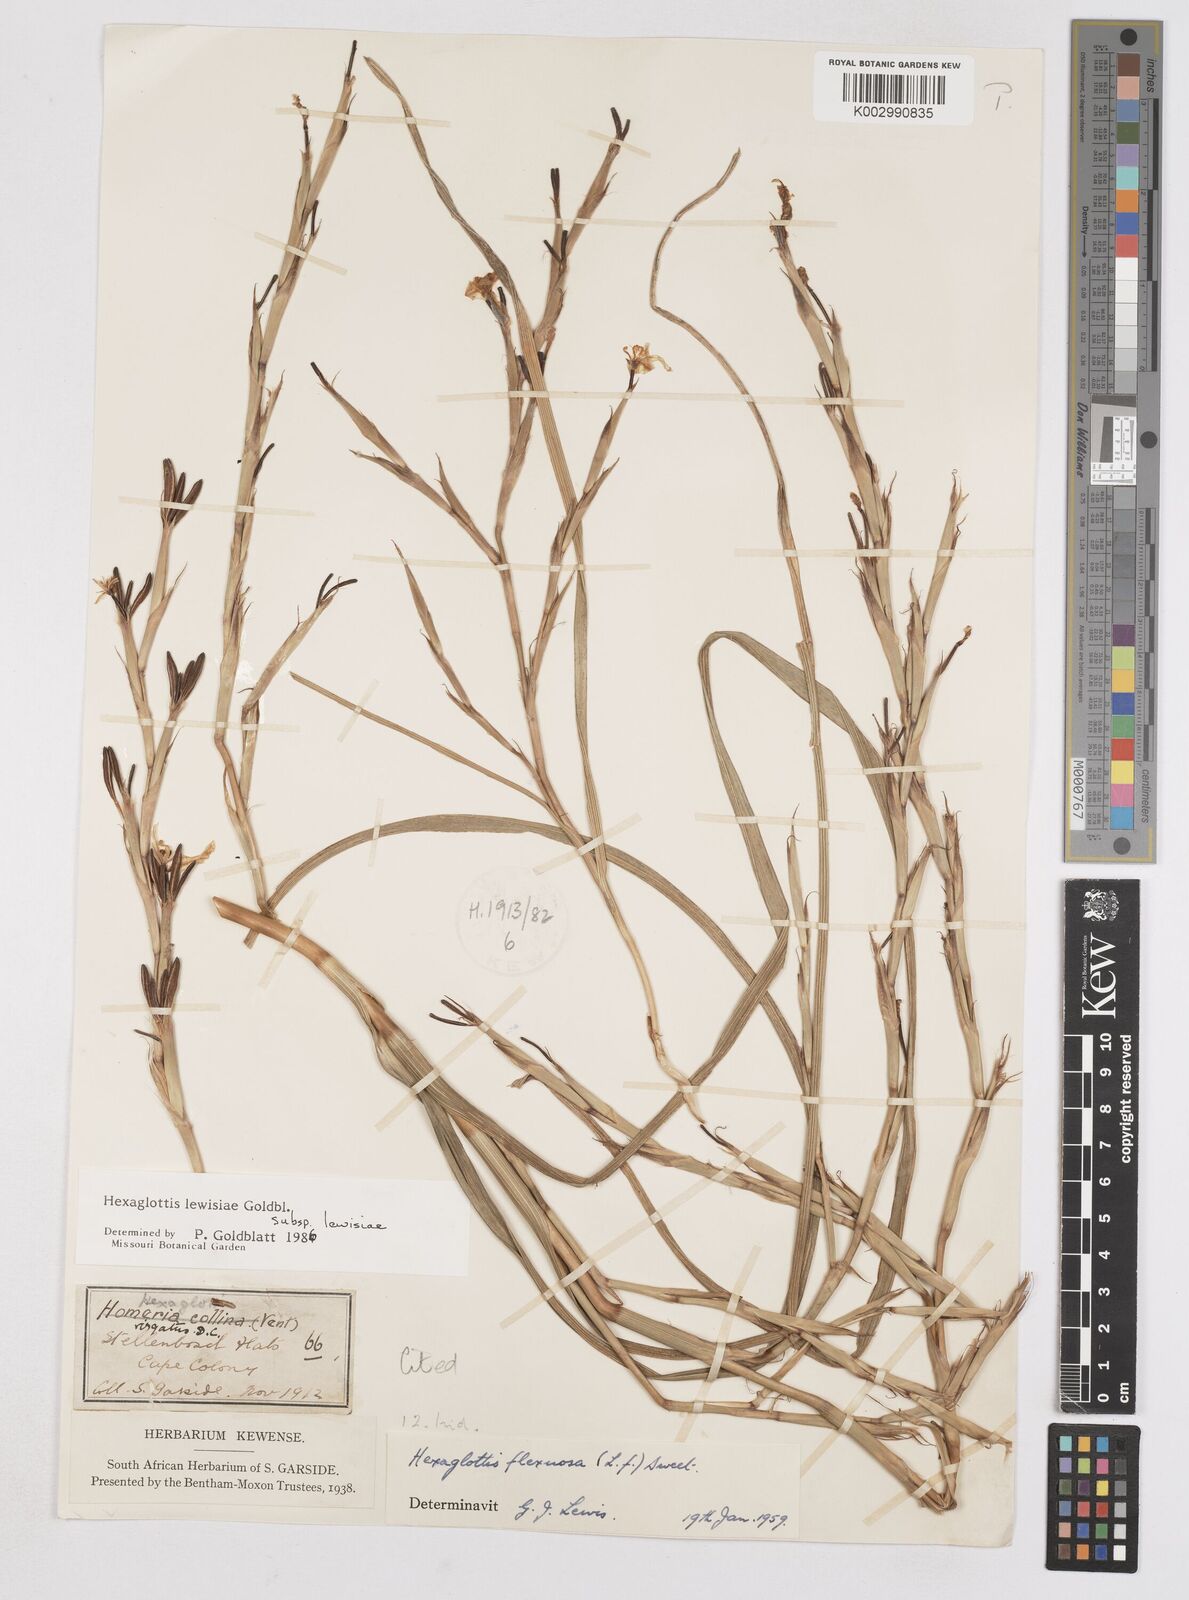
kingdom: Plantae
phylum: Tracheophyta
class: Liliopsida
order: Asparagales
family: Iridaceae
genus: Moraea
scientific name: Moraea lewisiae
